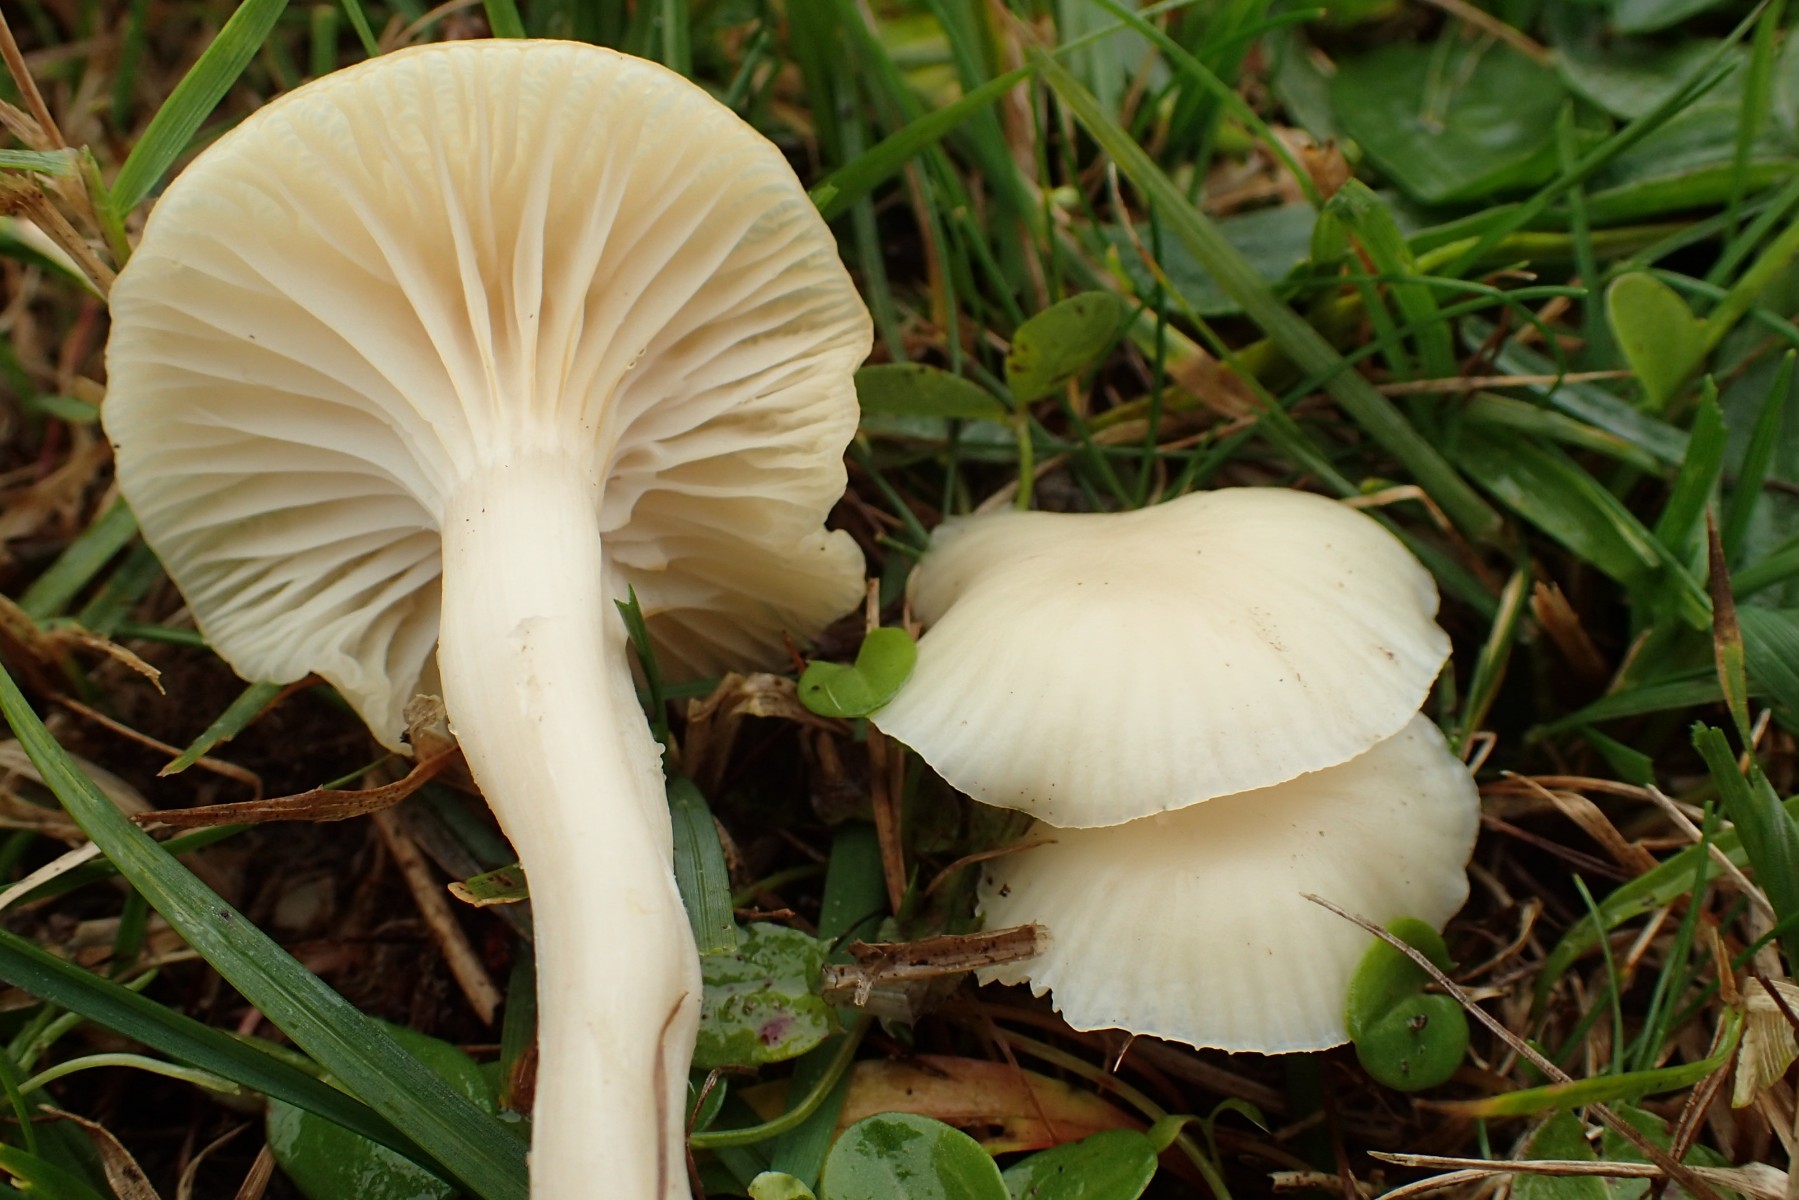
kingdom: Fungi
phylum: Basidiomycota
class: Agaricomycetes
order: Agaricales
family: Hygrophoraceae
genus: Cuphophyllus
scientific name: Cuphophyllus virgineus
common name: snehvid vokshat
